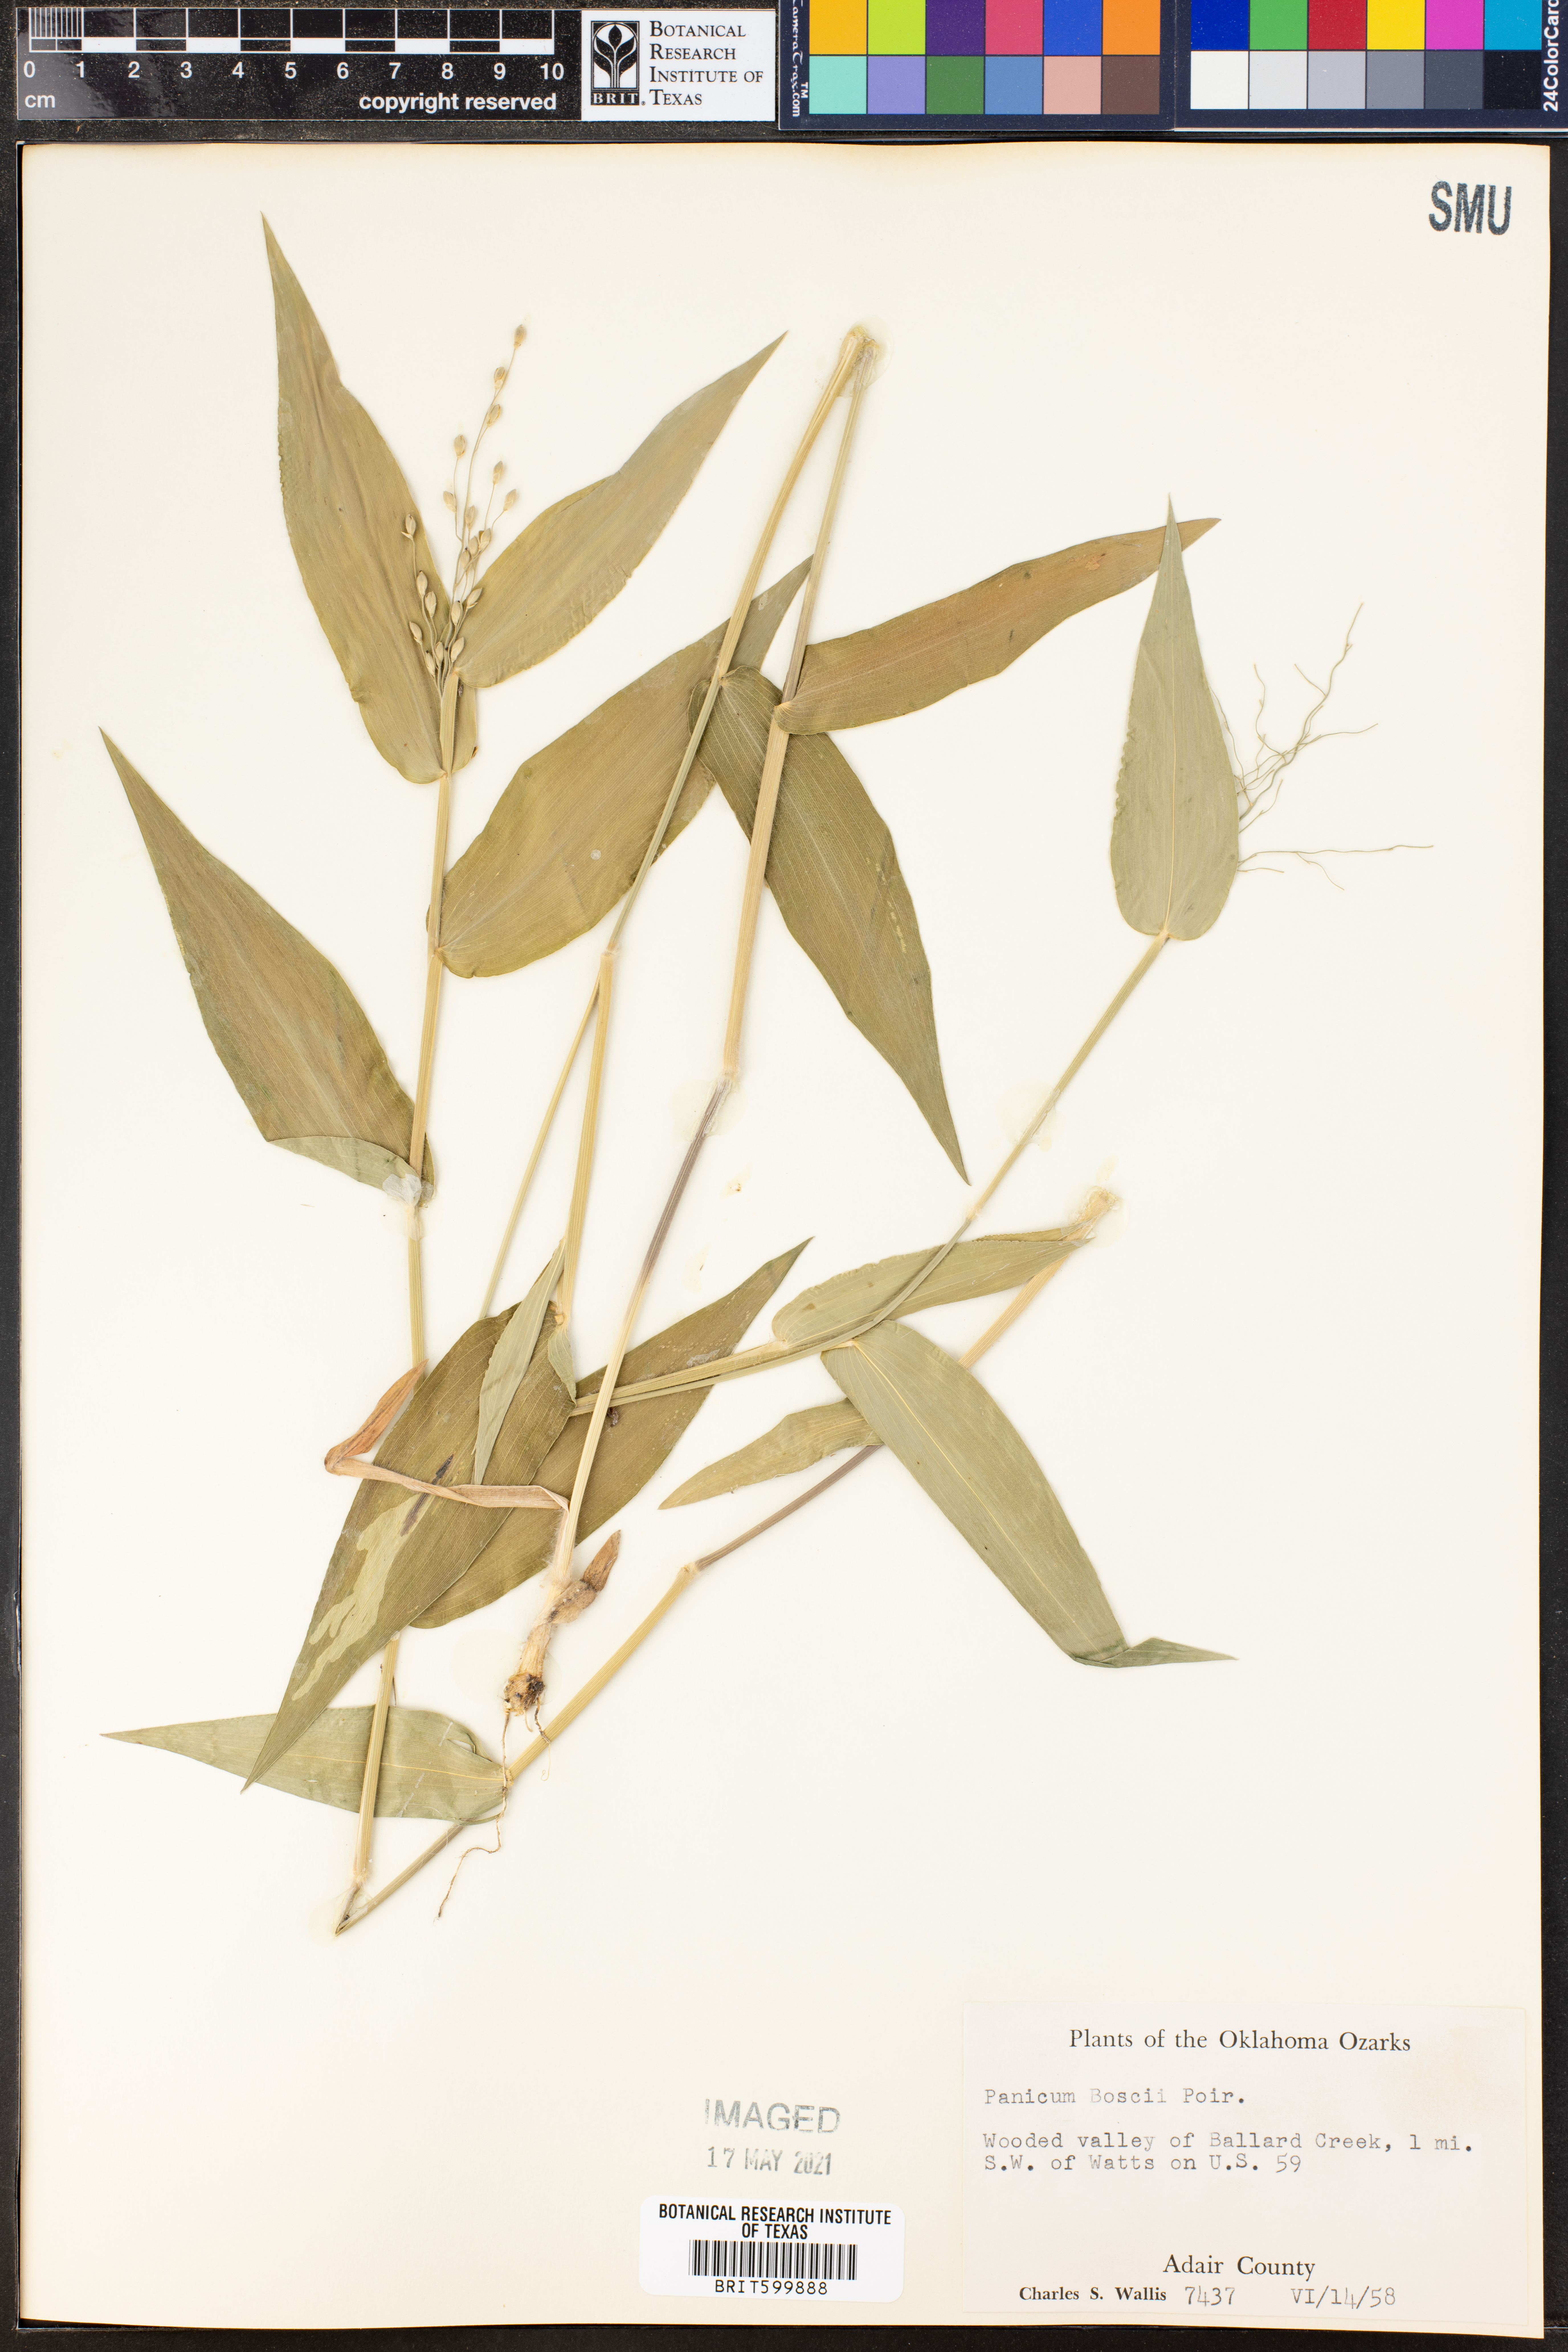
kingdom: Plantae
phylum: Tracheophyta
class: Liliopsida
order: Poales
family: Poaceae
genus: Dichanthelium
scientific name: Dichanthelium boscii
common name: Bosc's panic grass
